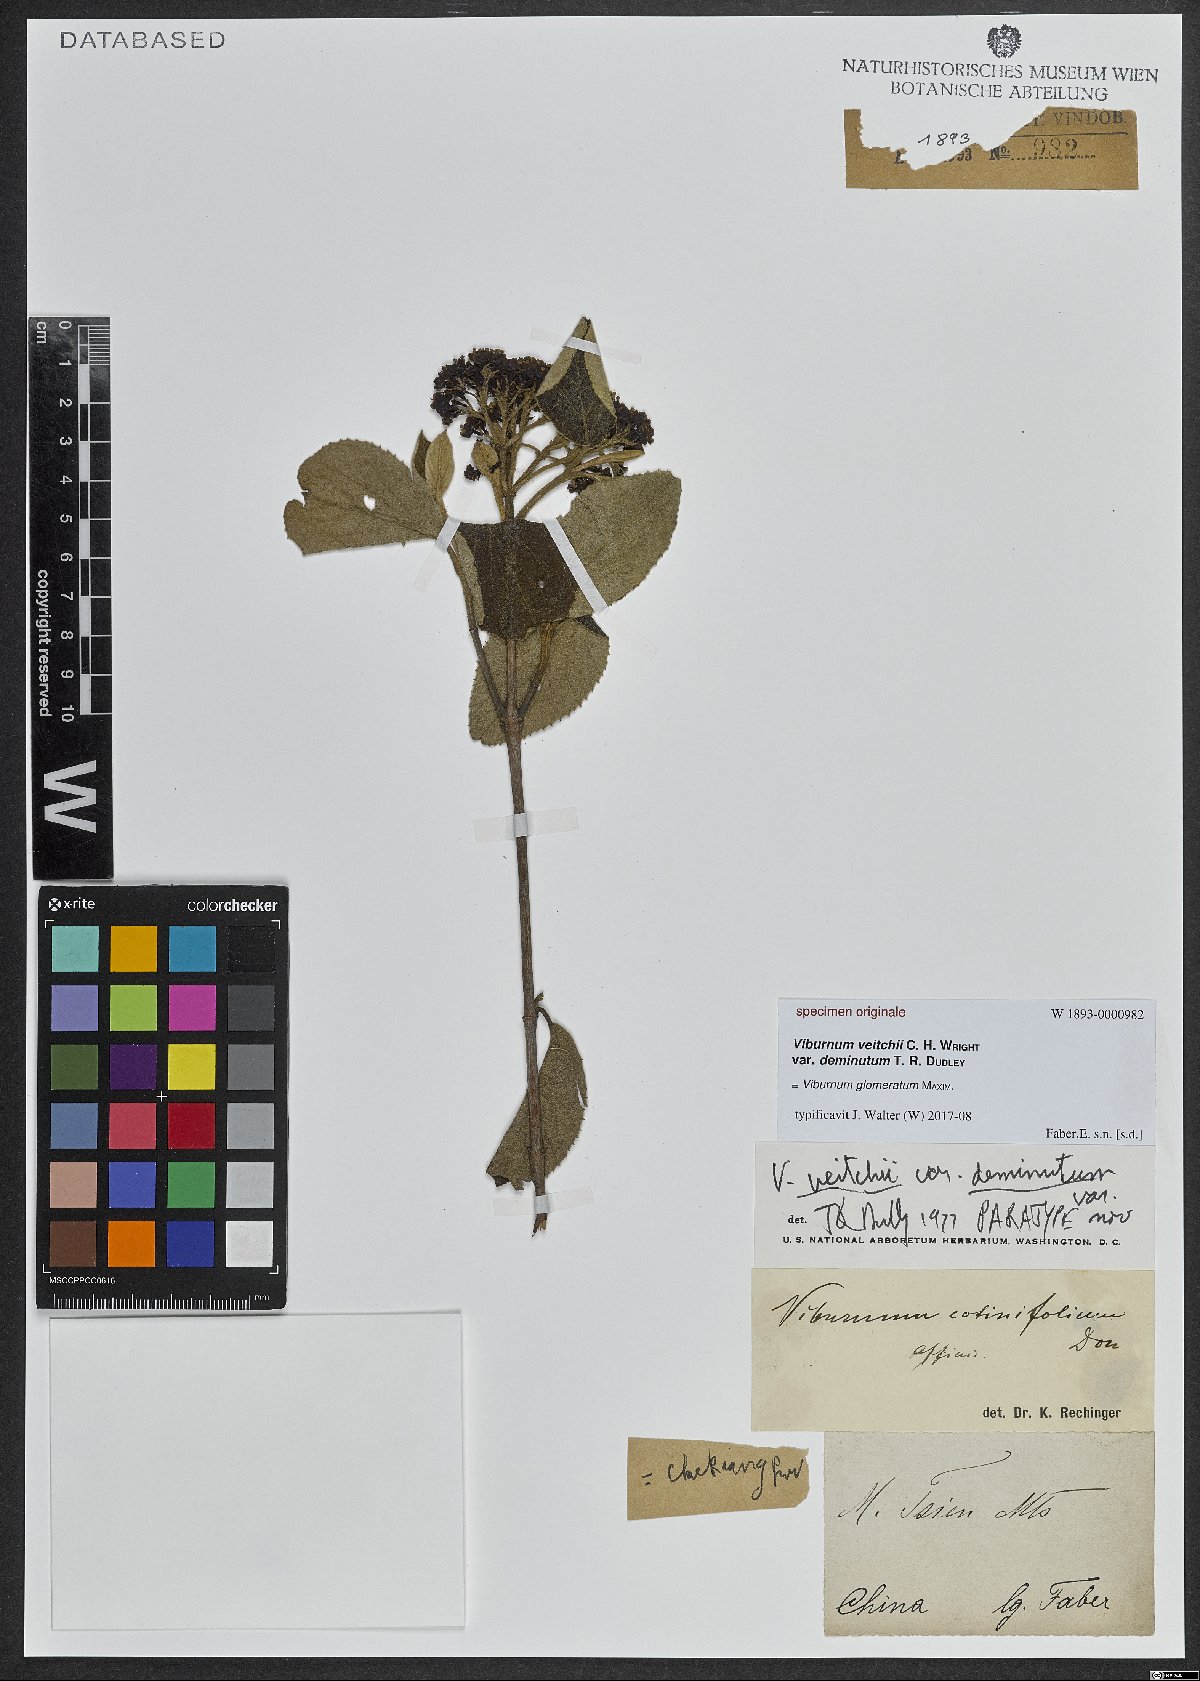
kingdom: Plantae
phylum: Tracheophyta
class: Magnoliopsida
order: Dipsacales
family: Viburnaceae
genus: Viburnum
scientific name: Viburnum glomeratum
